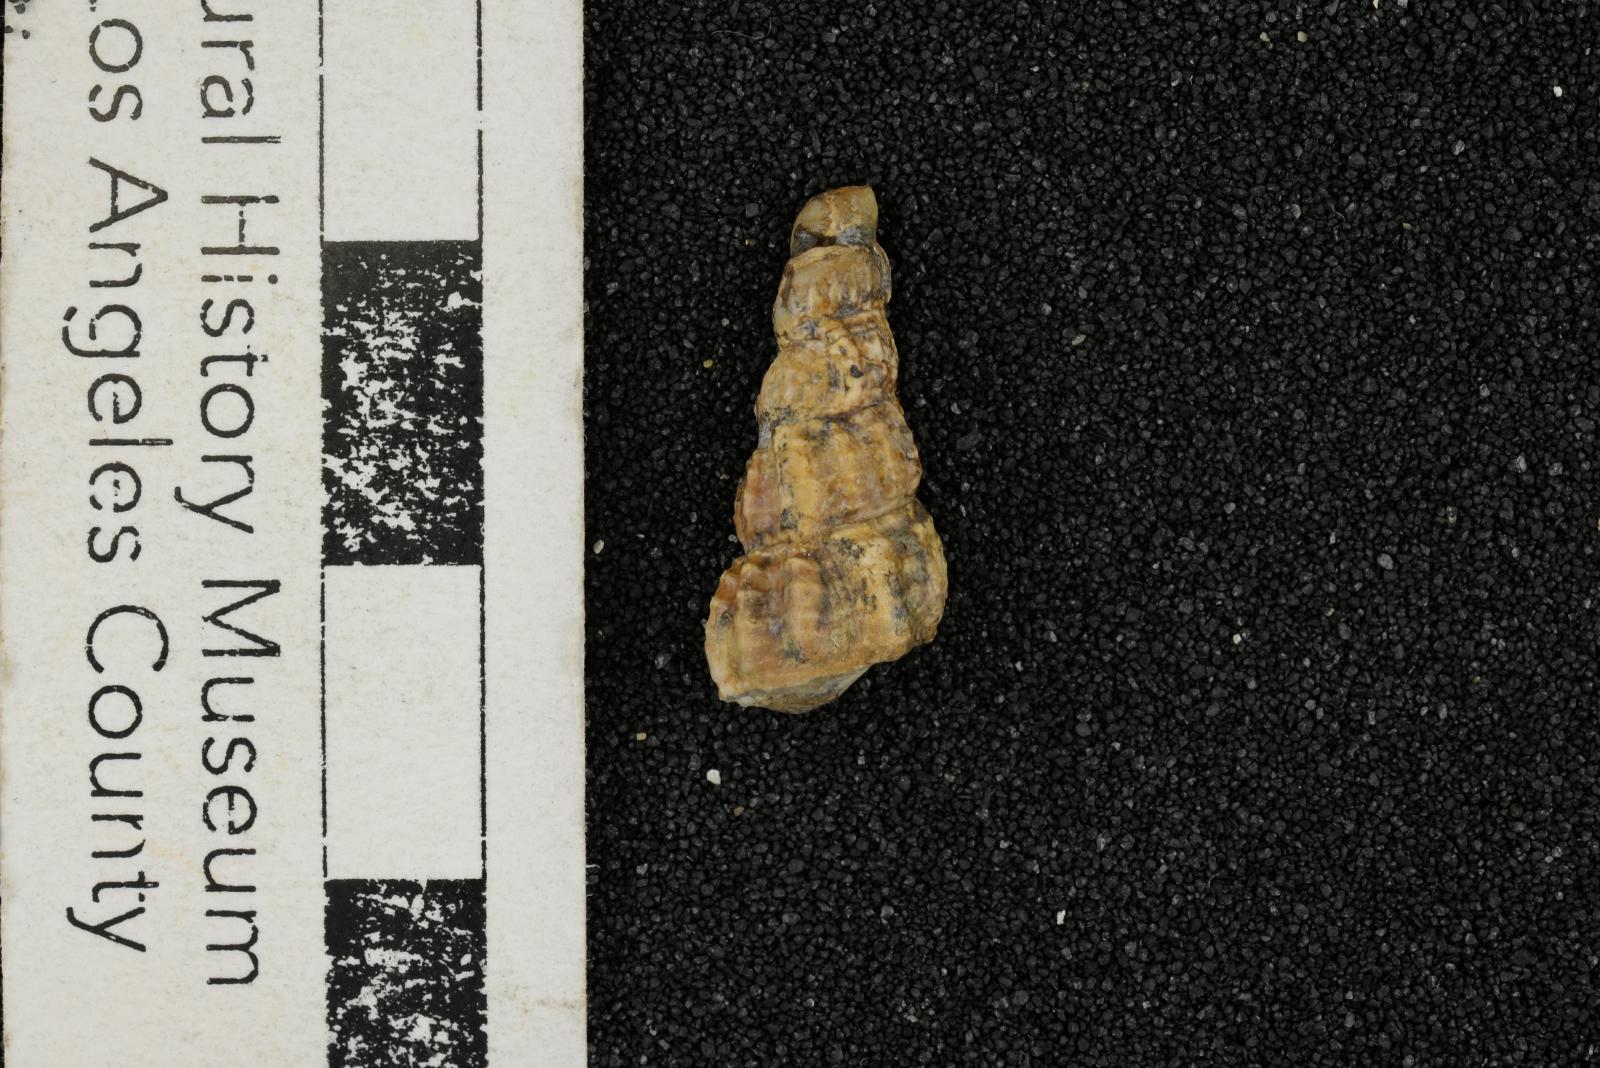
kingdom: Animalia
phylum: Mollusca
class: Gastropoda
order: Littorinimorpha
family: Aporrhaidae
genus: Anchura
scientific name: Anchura halberdopsis
